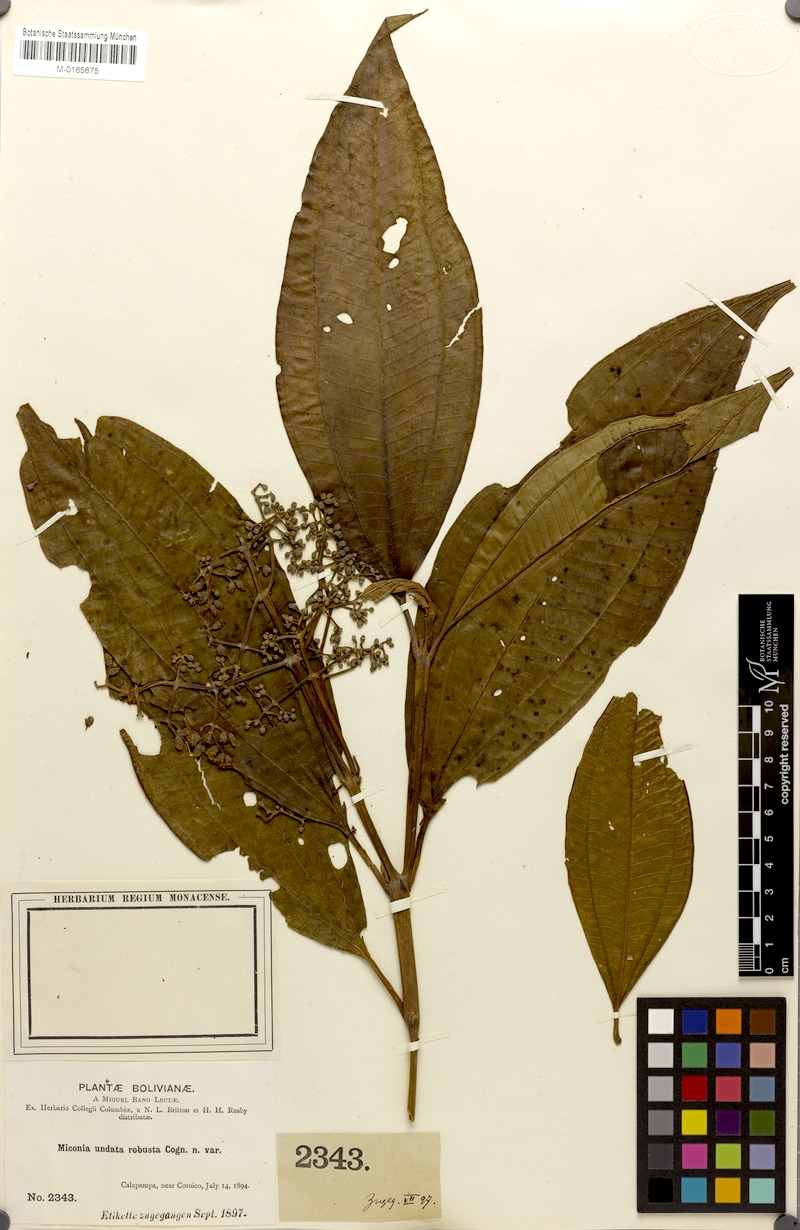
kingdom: Plantae
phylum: Tracheophyta
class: Magnoliopsida
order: Myrtales
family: Melastomataceae
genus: Miconia
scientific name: Miconia undata
